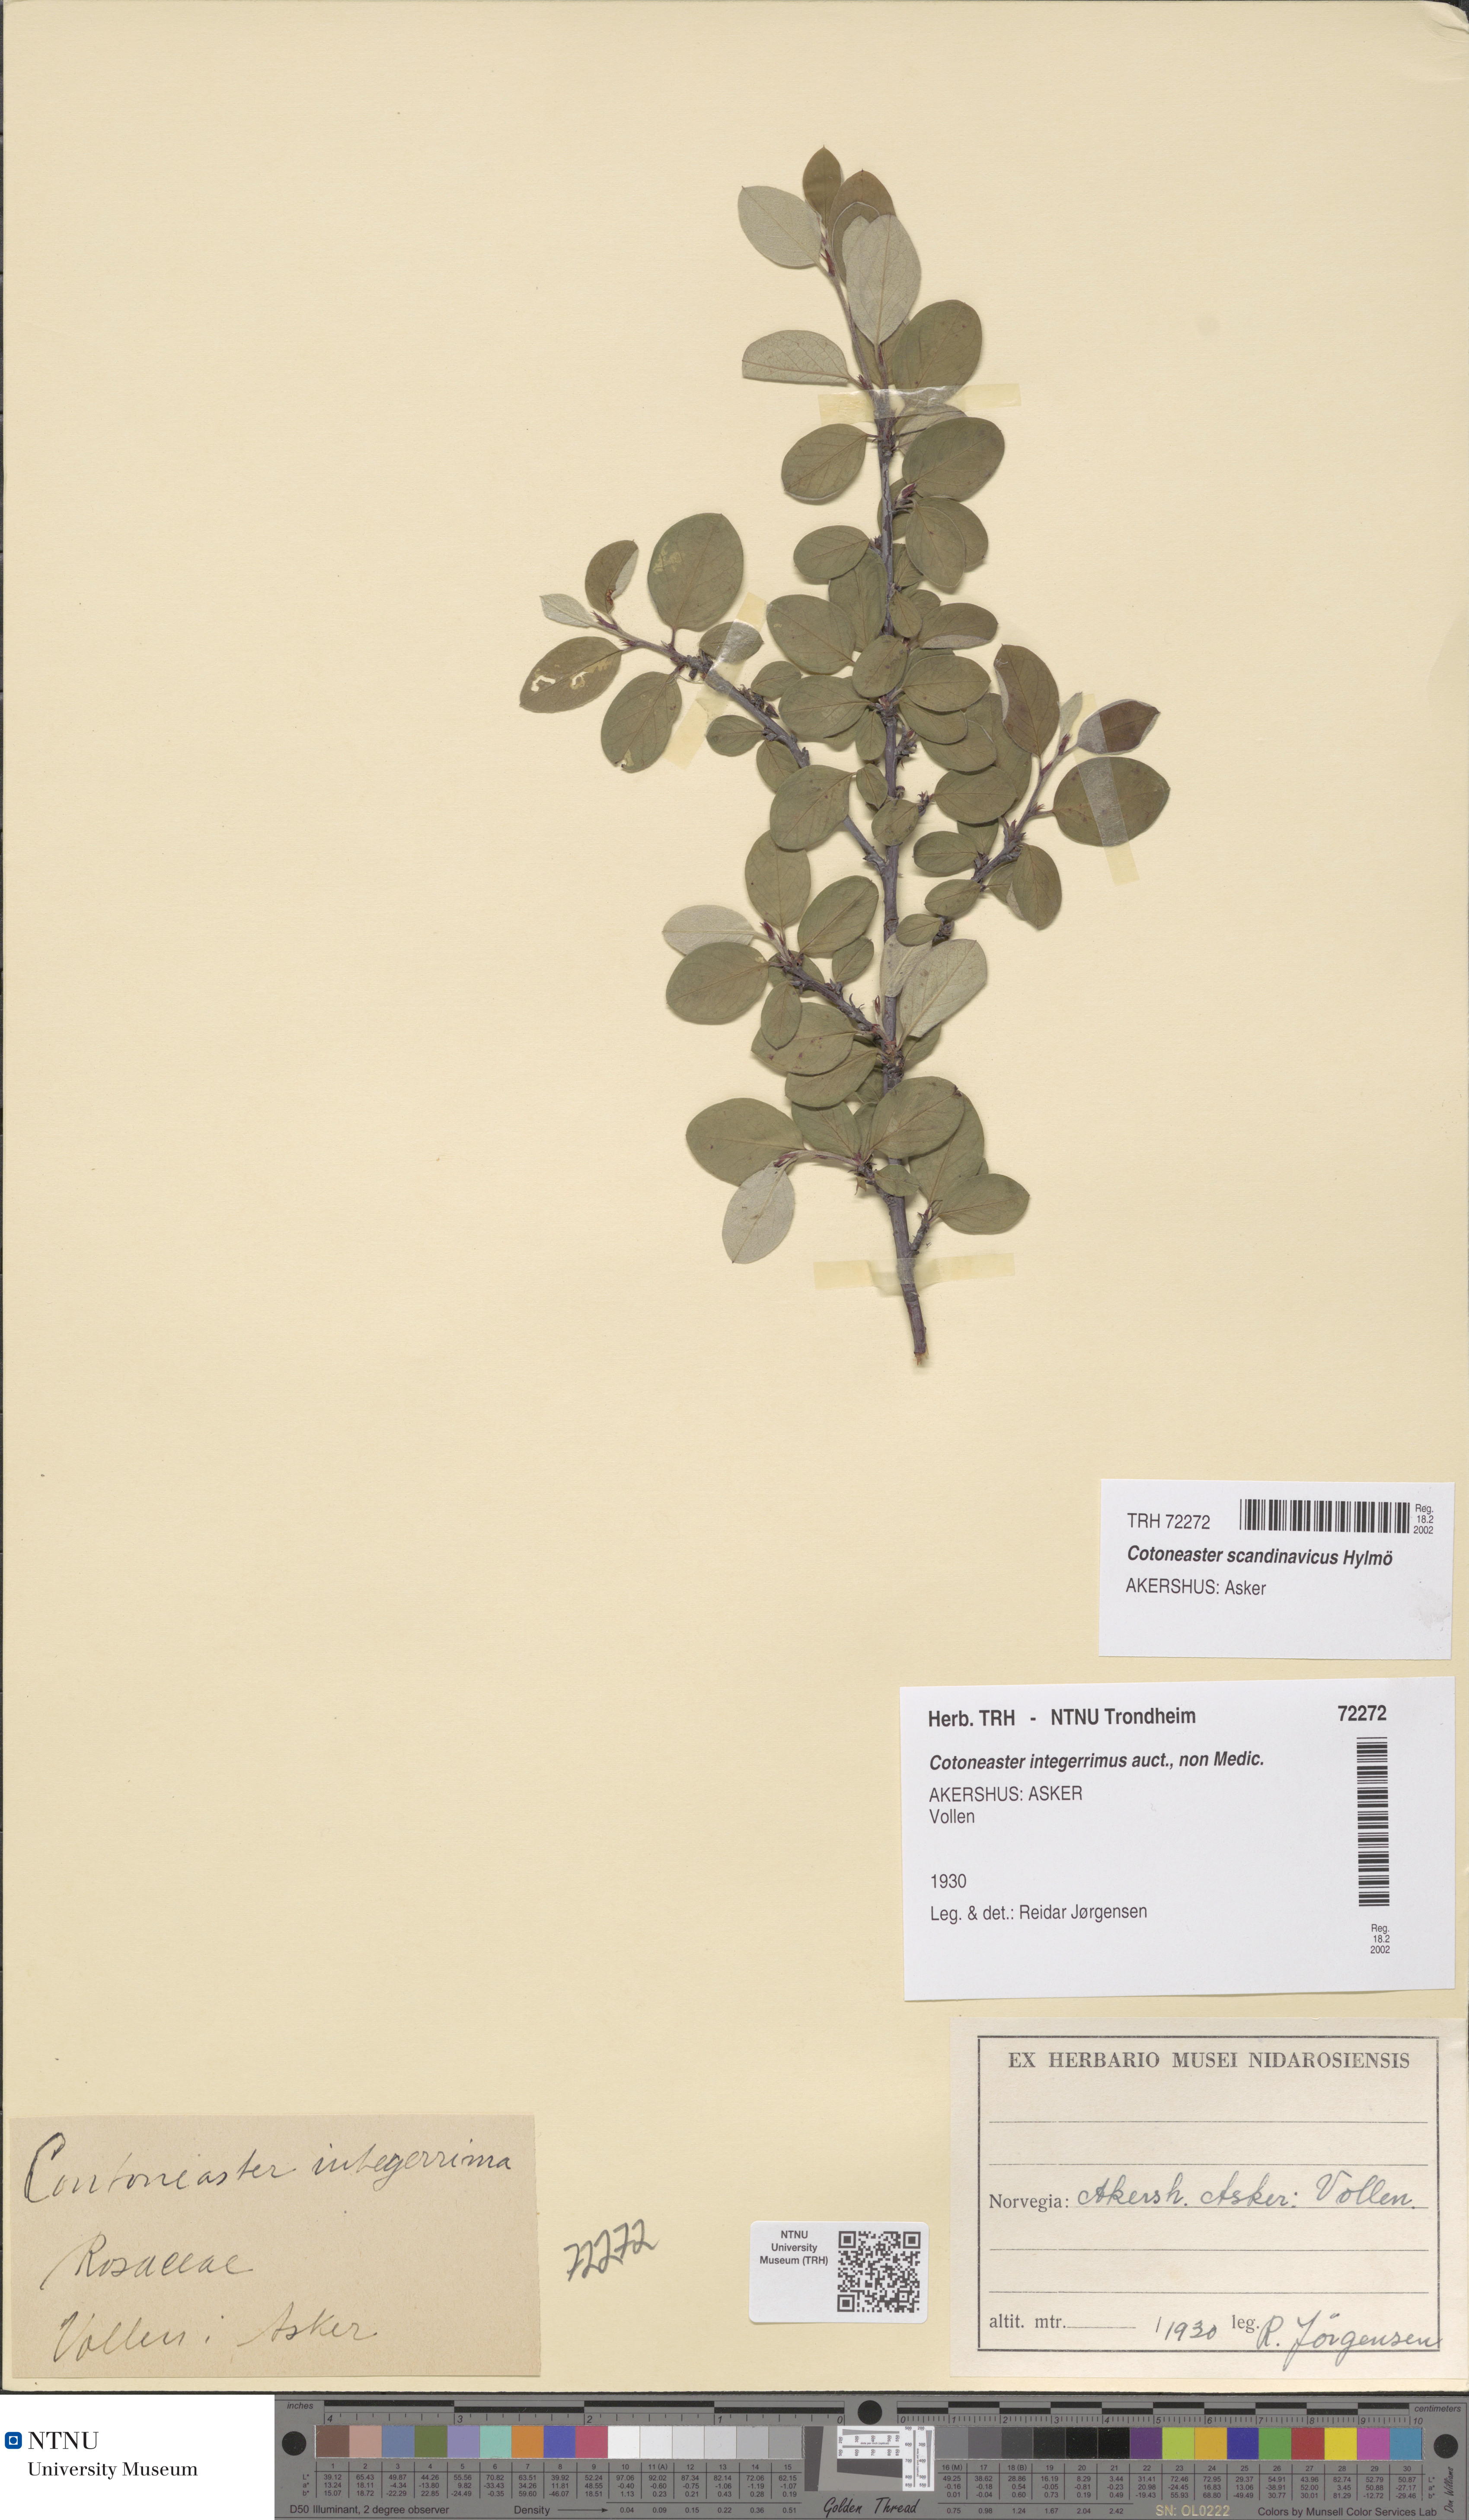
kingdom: Plantae
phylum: Tracheophyta
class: Magnoliopsida
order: Rosales
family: Rosaceae
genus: Cotoneaster
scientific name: Cotoneaster integerrimus
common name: Wild cotoneaster
